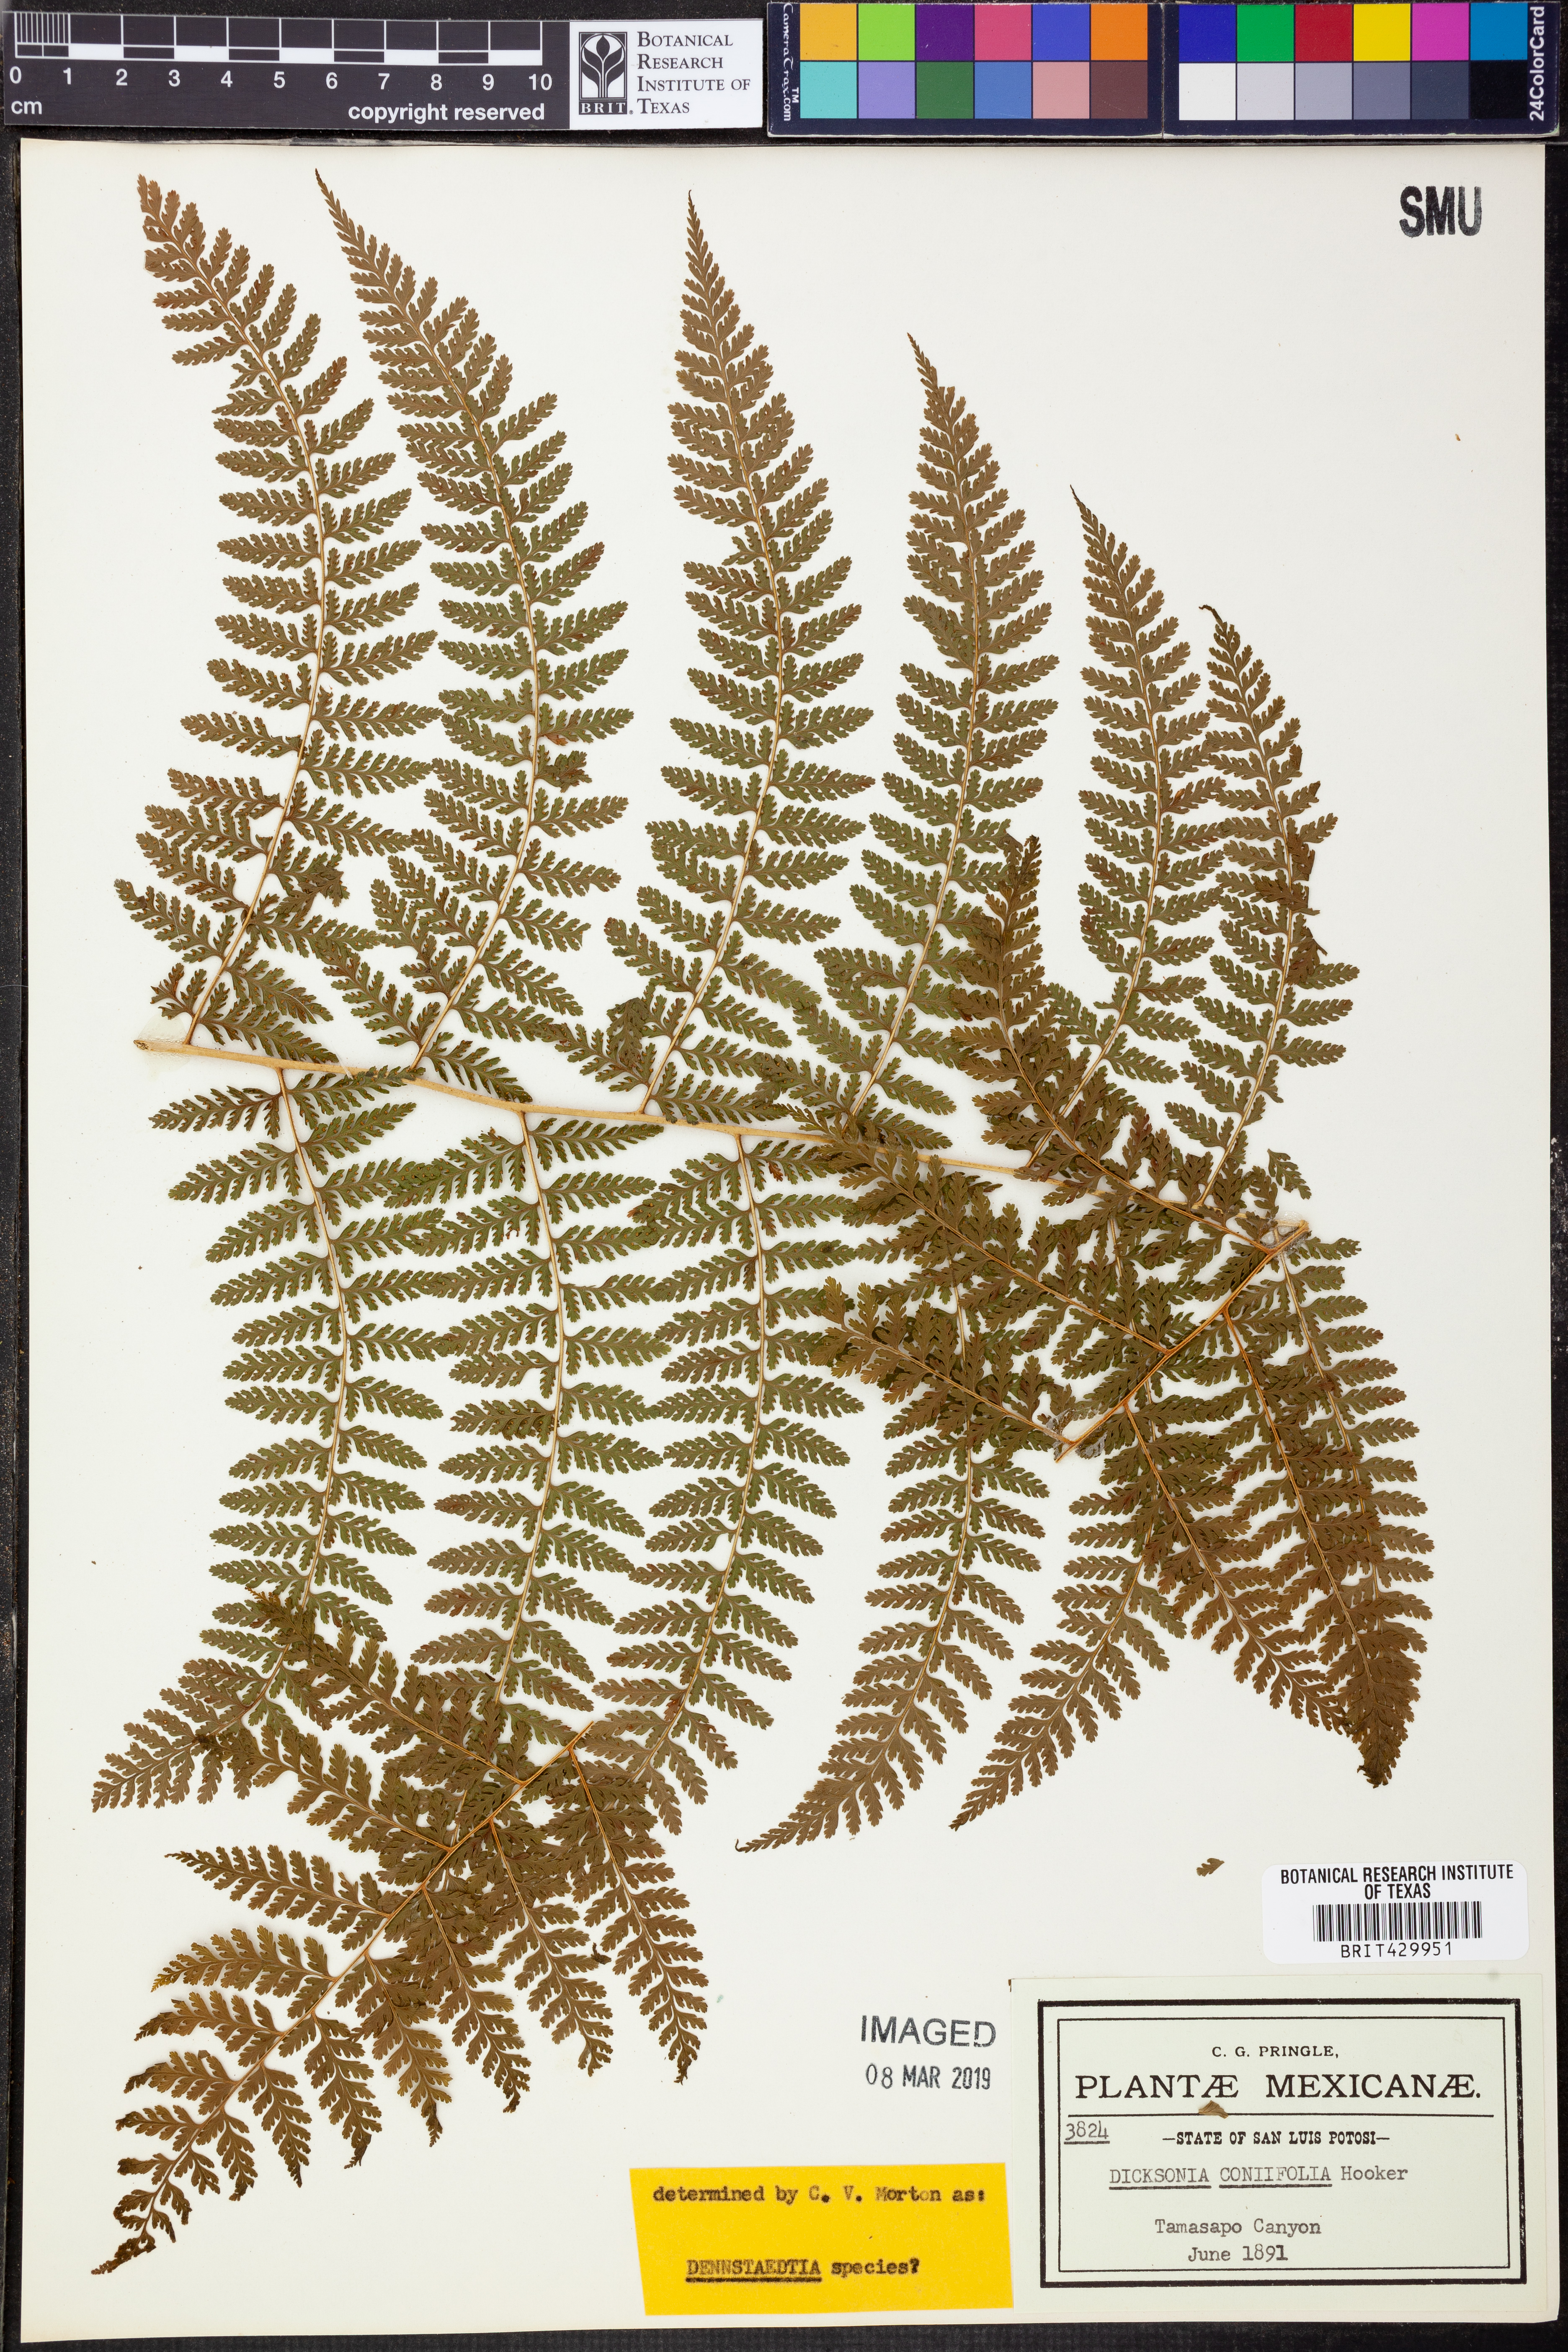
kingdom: Plantae
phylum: Tracheophyta
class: Polypodiopsida
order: Polypodiales
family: Dennstaedtiaceae
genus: Dennstaedtia
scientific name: Dennstaedtia
